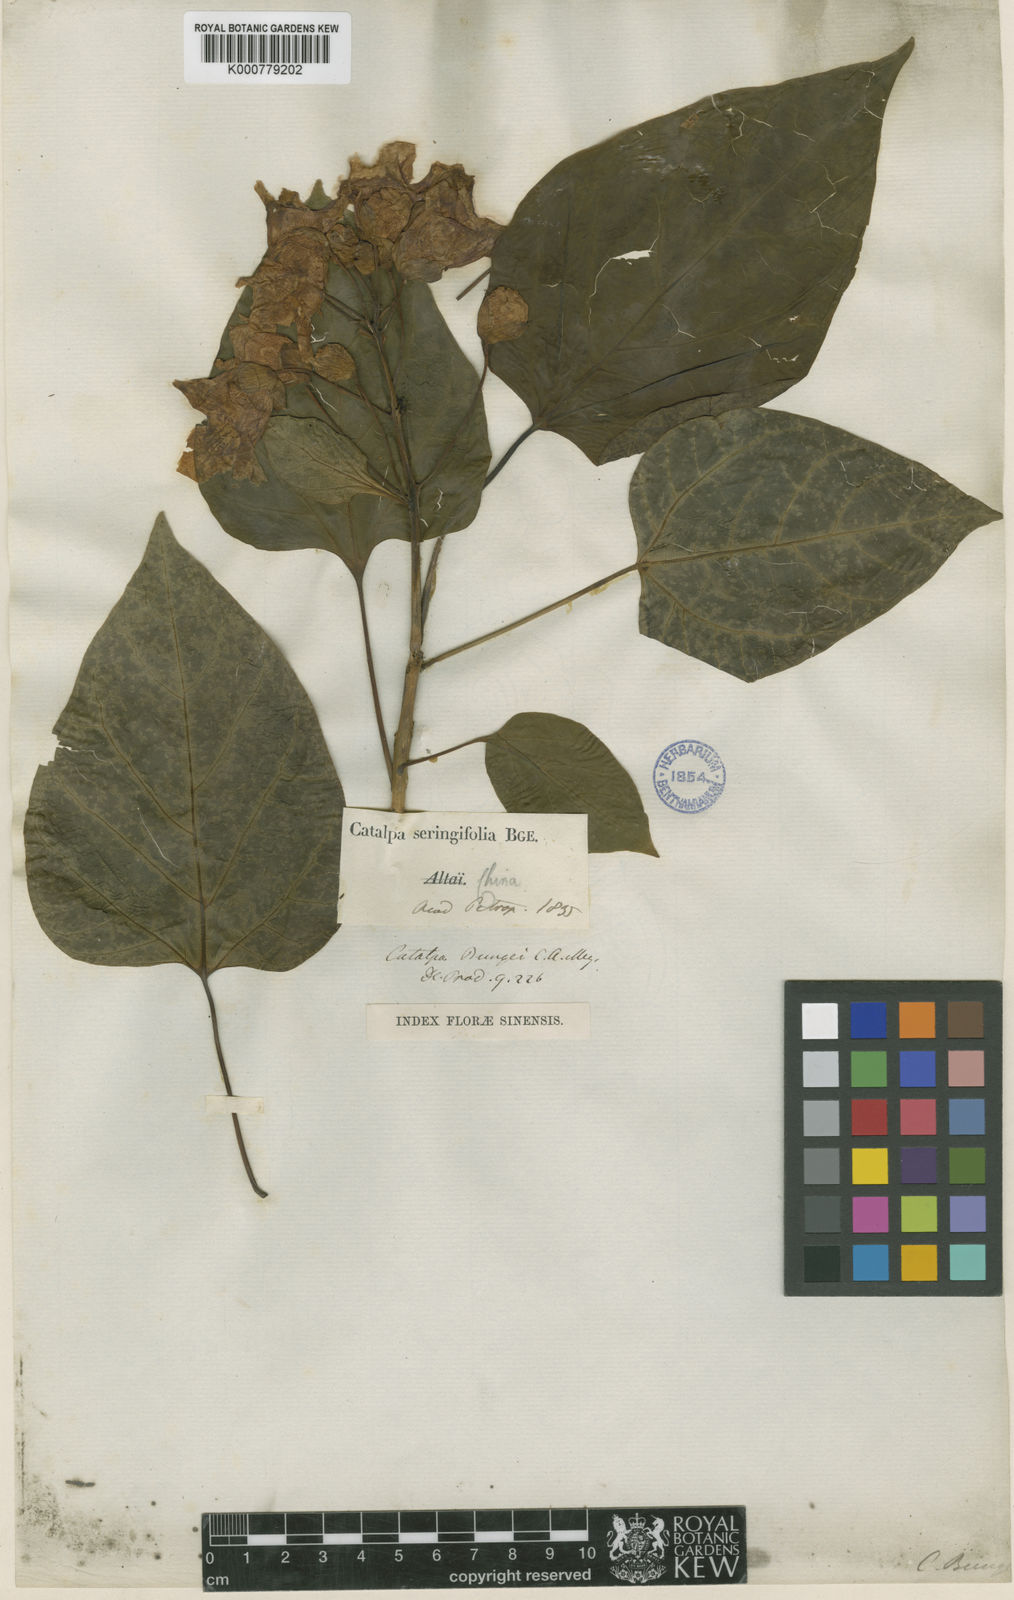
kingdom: Plantae
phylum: Tracheophyta
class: Magnoliopsida
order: Lamiales
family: Bignoniaceae
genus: Catalpa
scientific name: Catalpa bungei
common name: Manchurian catalpa
